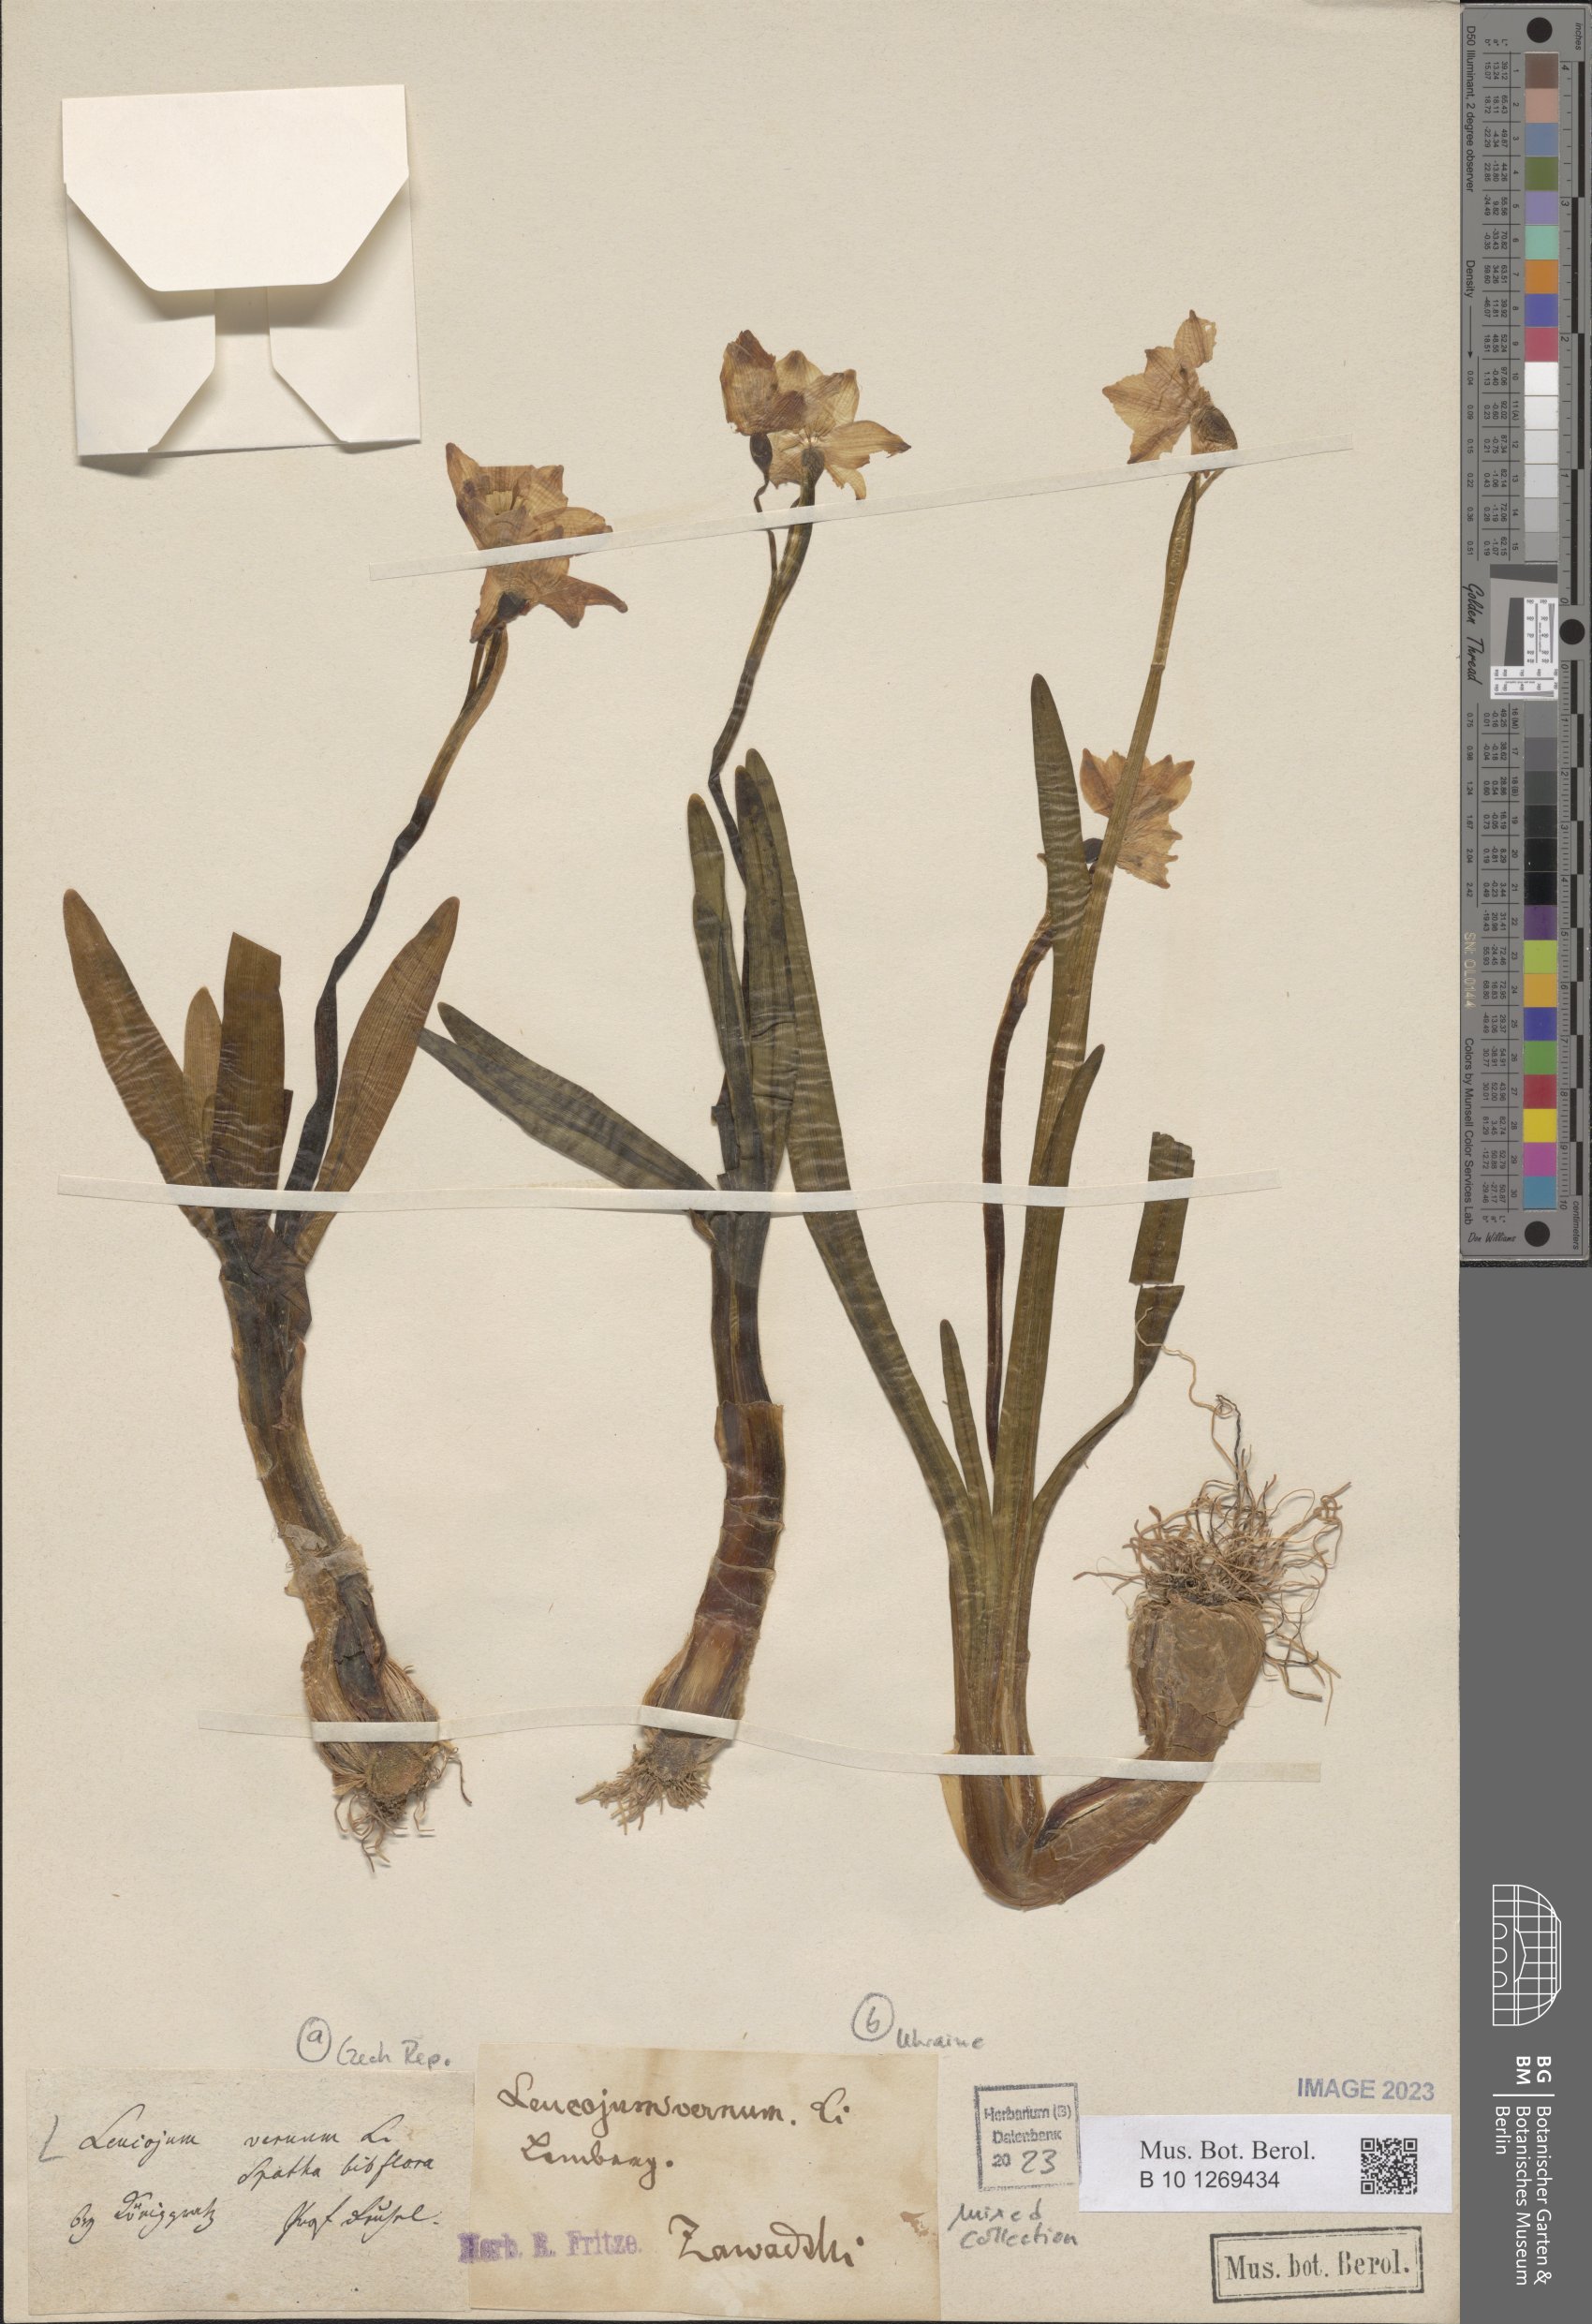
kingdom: Plantae
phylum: Tracheophyta
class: Liliopsida
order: Asparagales
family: Amaryllidaceae
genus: Leucojum
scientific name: Leucojum vernum
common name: Spring snowflake
